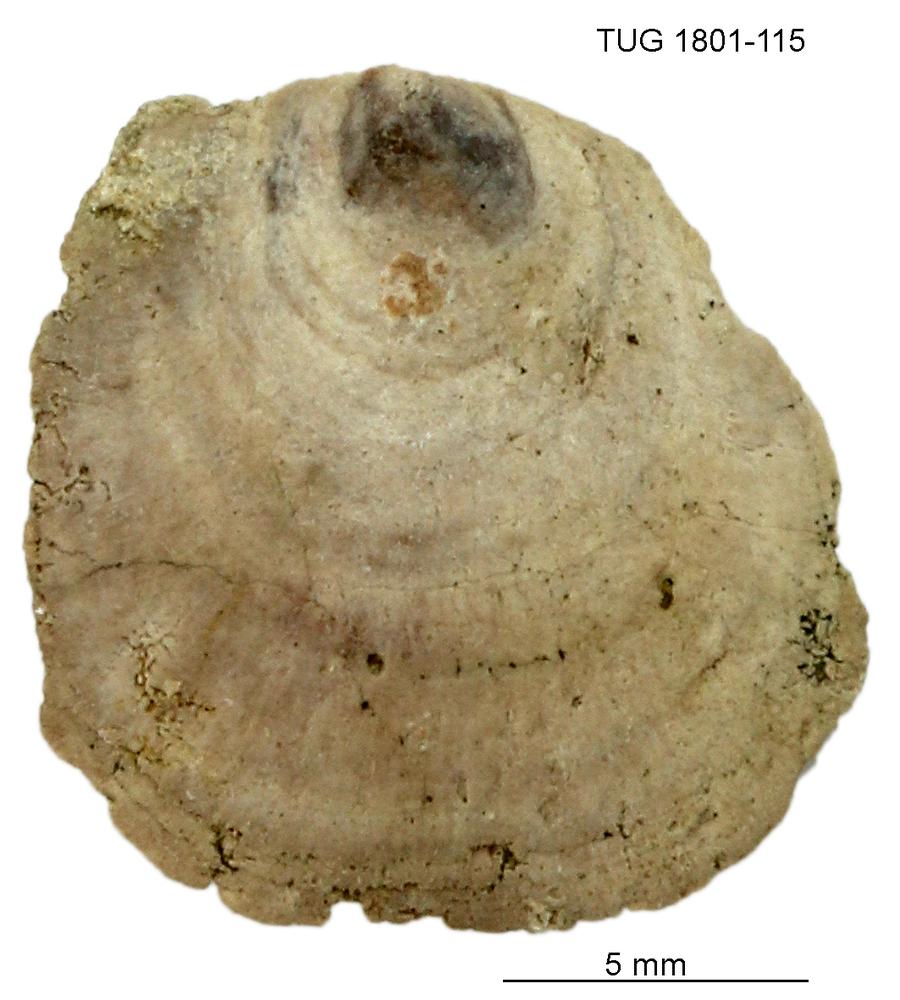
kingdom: Animalia
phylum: Brachiopoda
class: Craniata
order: Craniida
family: Craniidae
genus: Philhedra
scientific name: Philhedra
